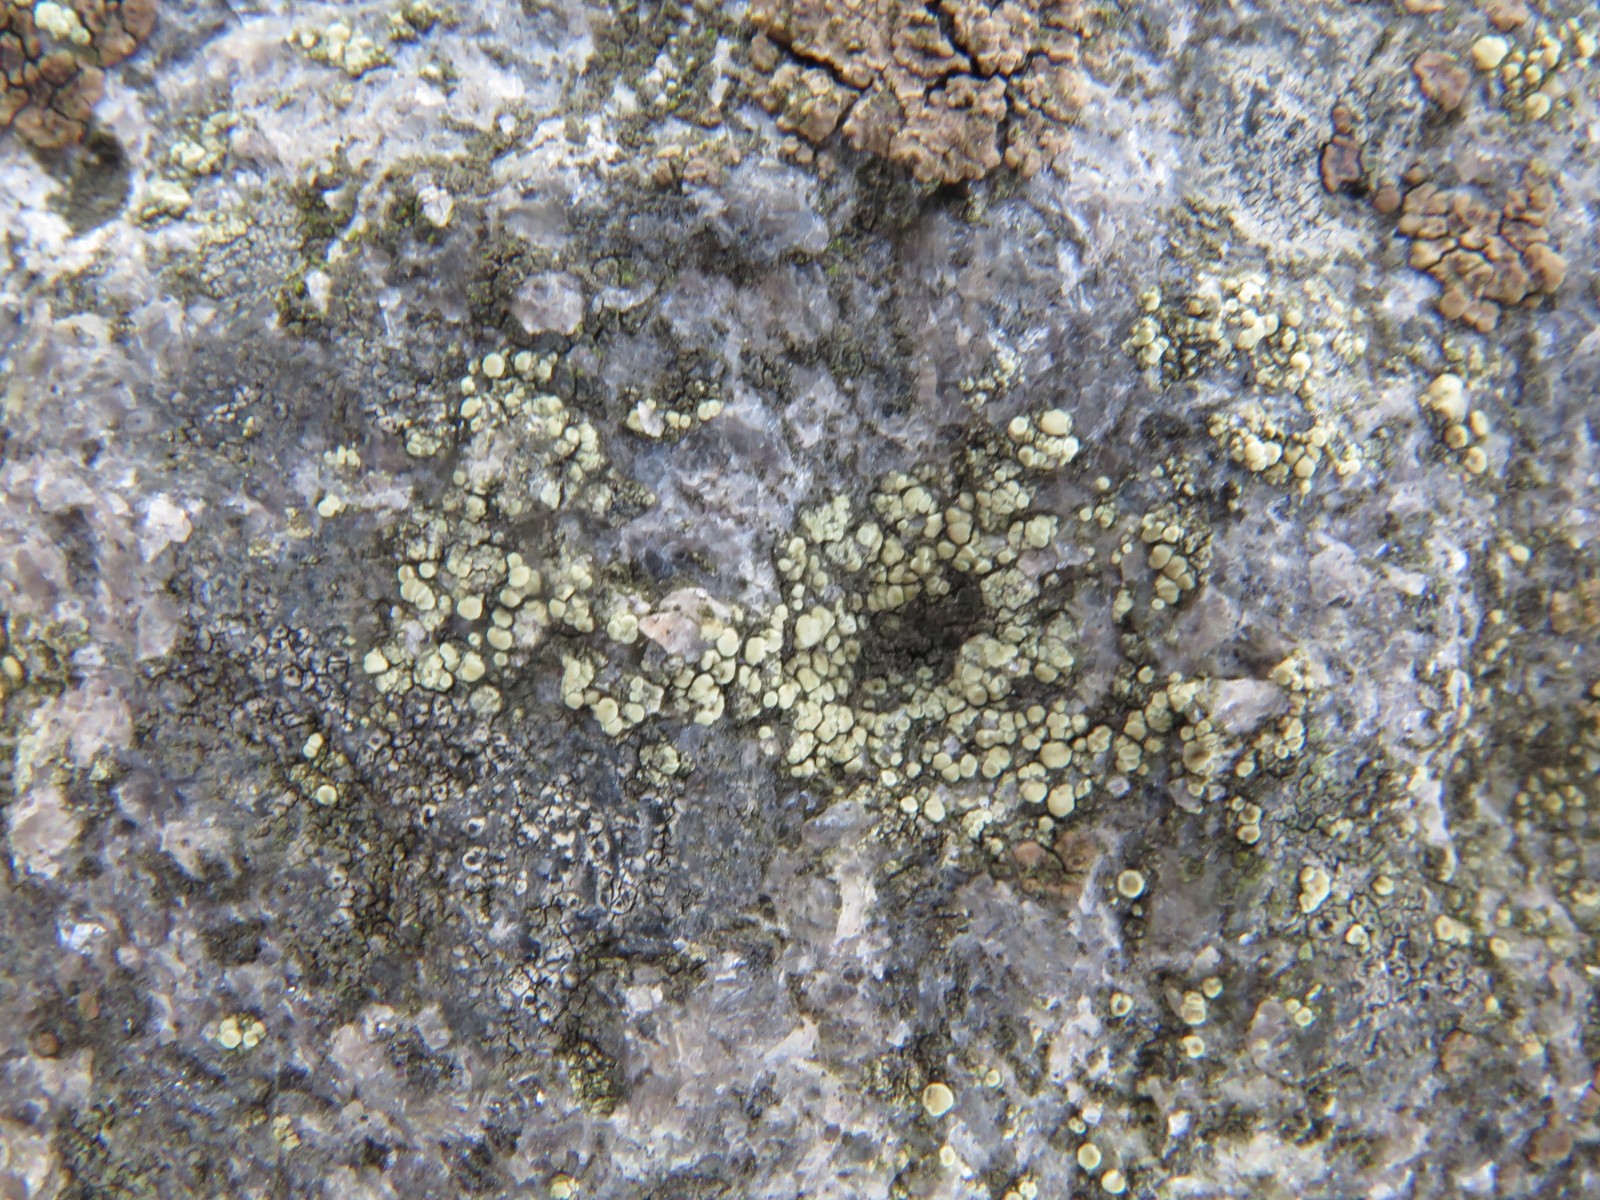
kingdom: Fungi
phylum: Ascomycota
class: Lecanoromycetes
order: Lecanorales
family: Lecanoraceae
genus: Lecanora
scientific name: Lecanora polytropa
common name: bleggrøn kantskivelav
